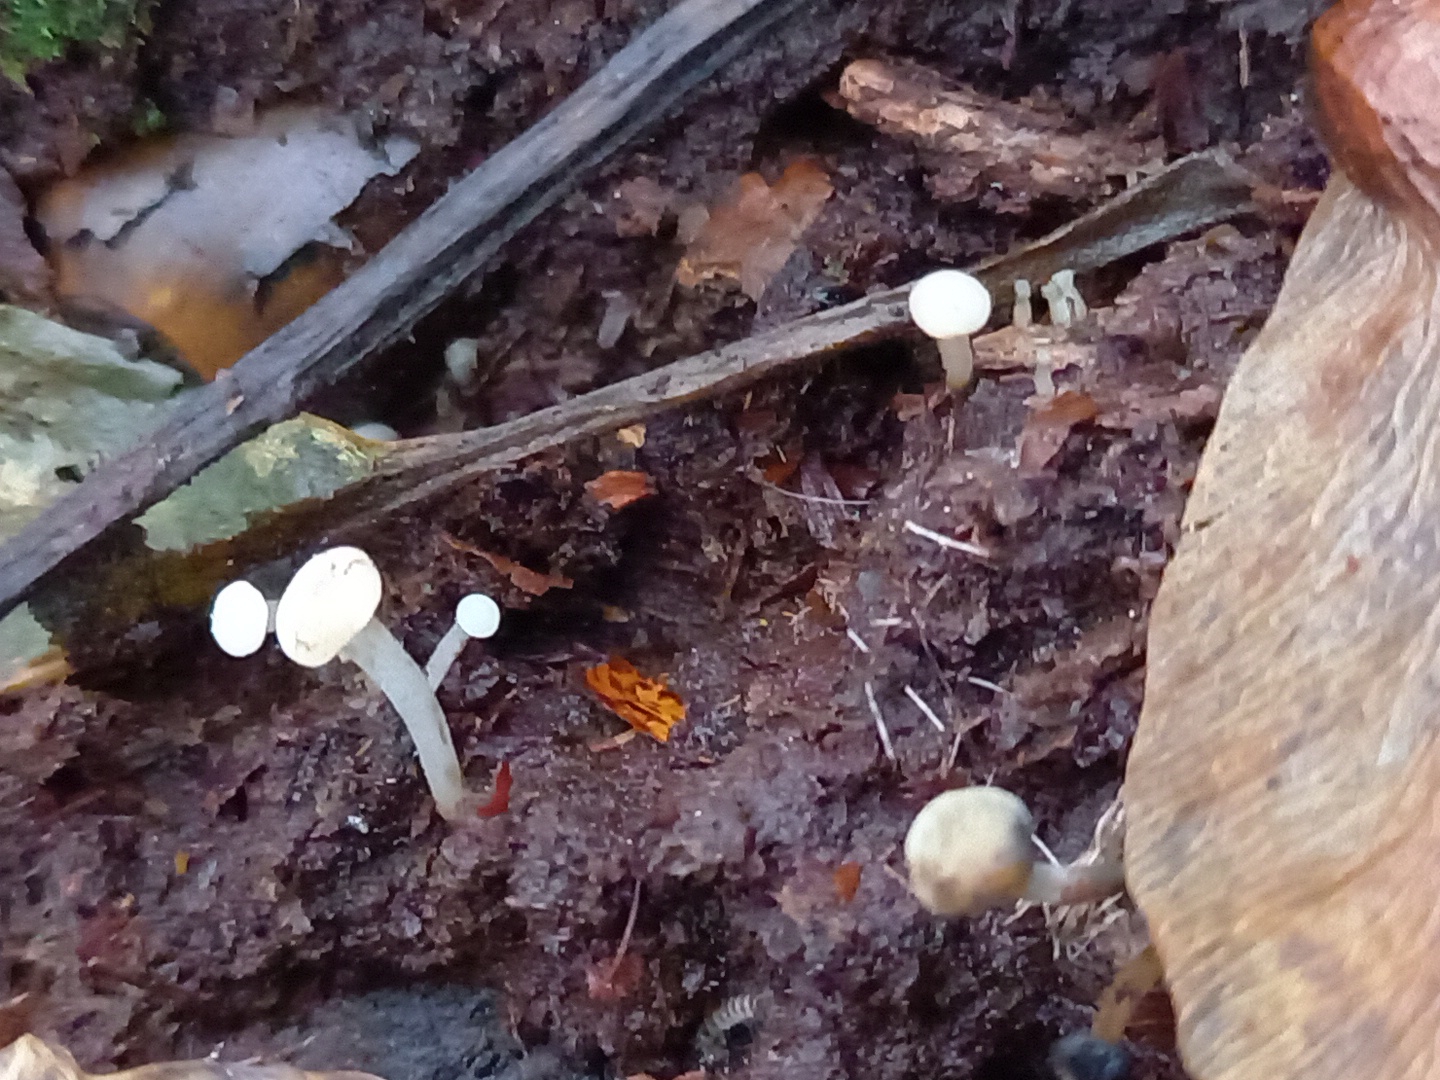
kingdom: Fungi
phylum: Ascomycota
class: Leotiomycetes
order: Helotiales
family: Tricladiaceae
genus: Cudoniella
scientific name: Cudoniella acicularis
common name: ege-dyndskive
